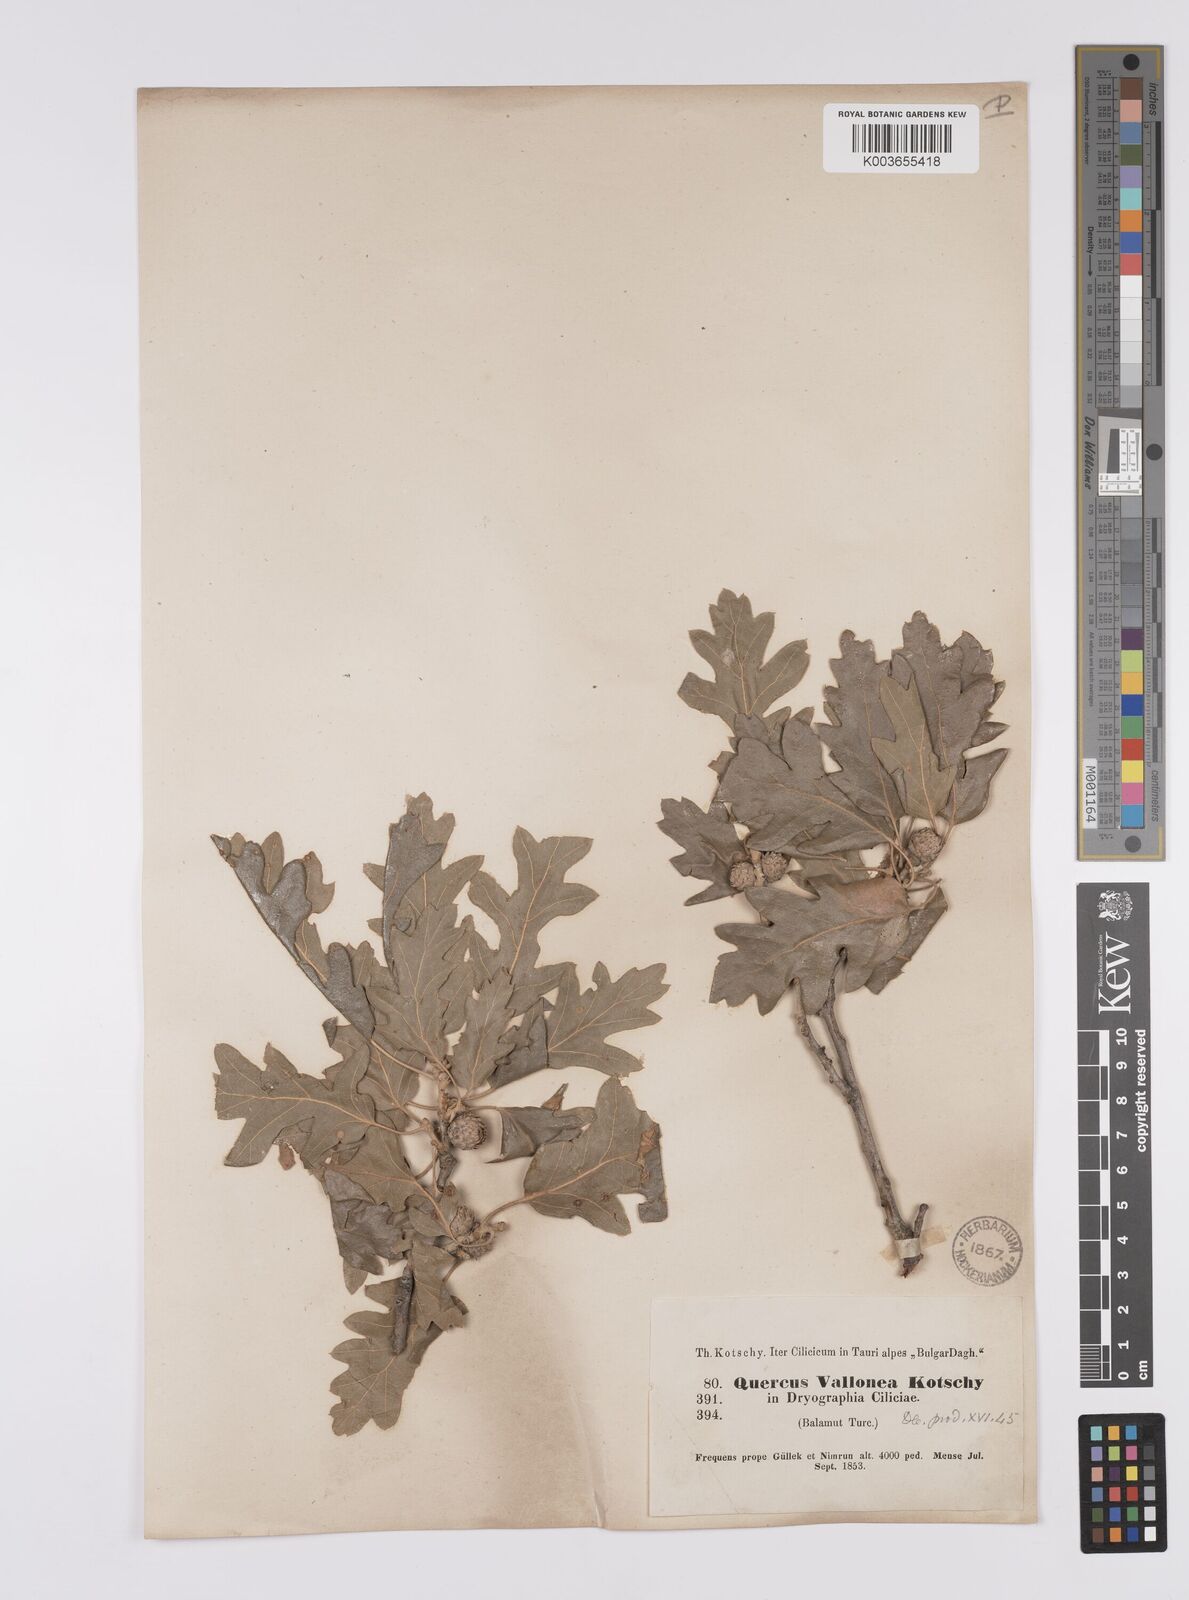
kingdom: Plantae
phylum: Tracheophyta
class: Magnoliopsida
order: Fagales
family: Fagaceae
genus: Quercus
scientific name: Quercus
